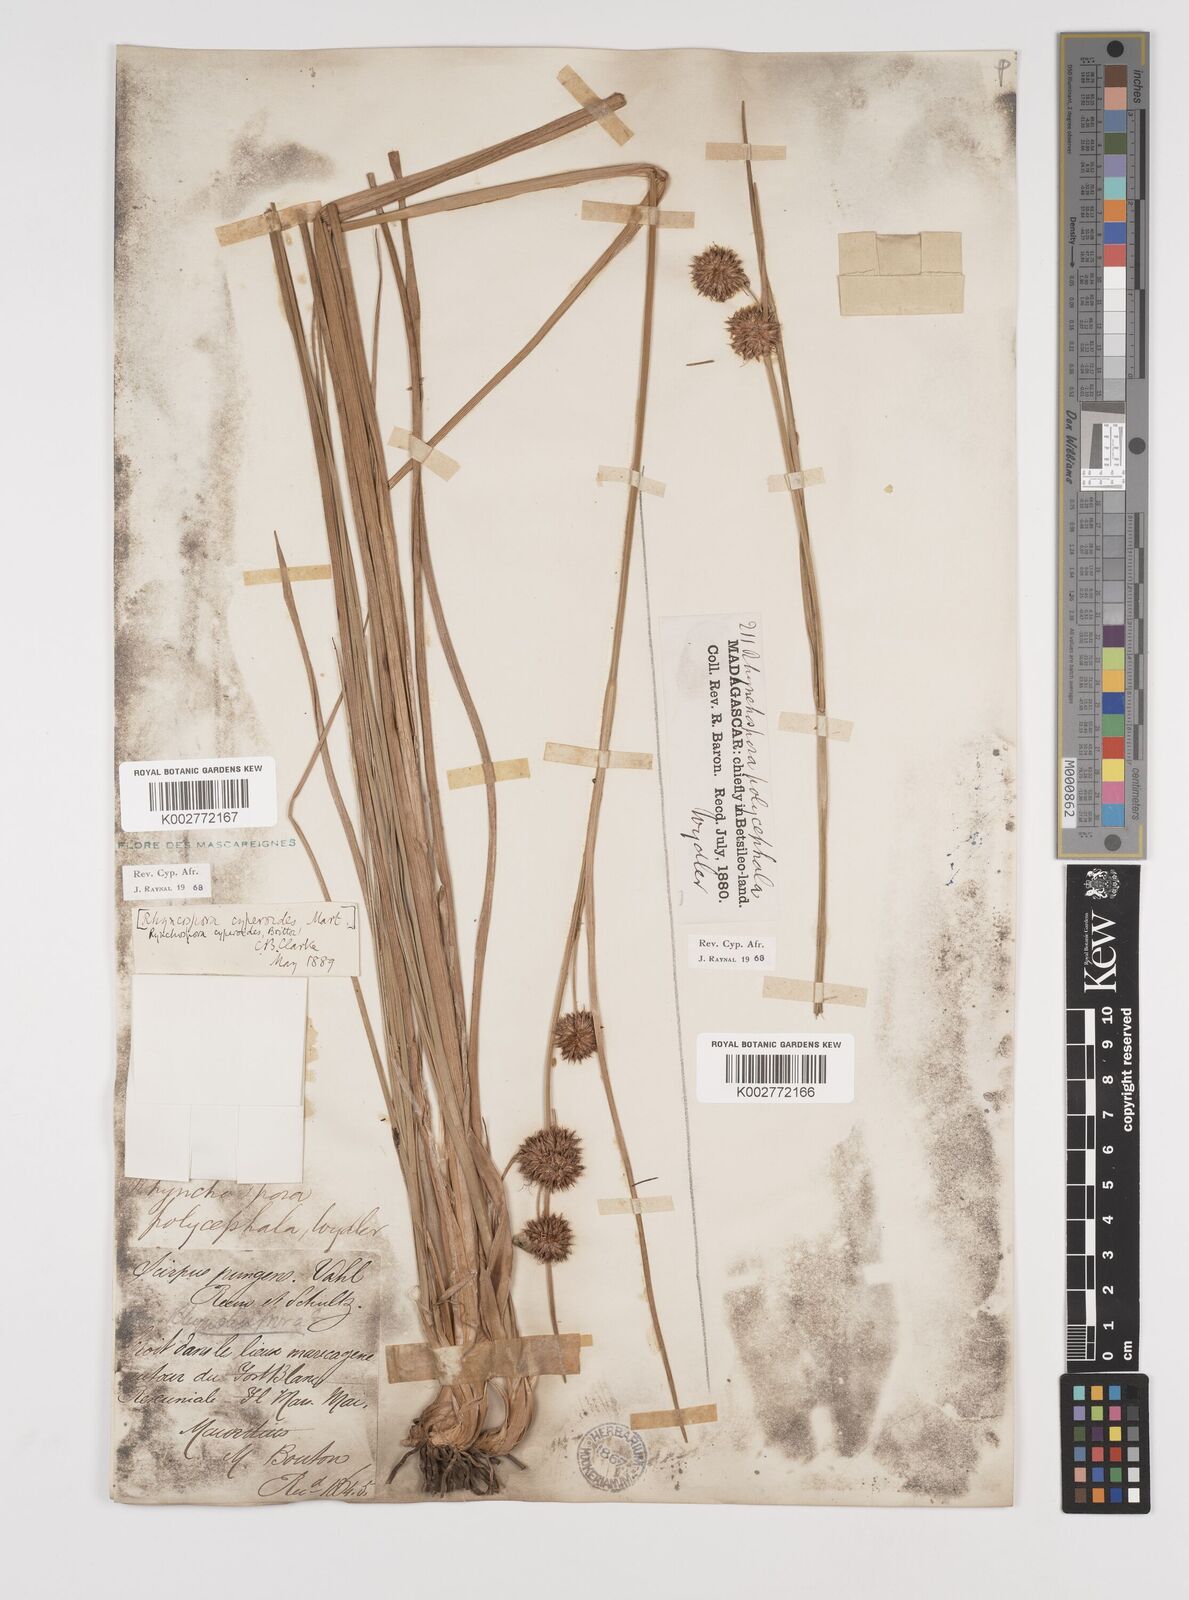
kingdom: Plantae
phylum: Tracheophyta
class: Liliopsida
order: Poales
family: Cyperaceae
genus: Rhynchospora
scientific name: Rhynchospora holoschoenoides
